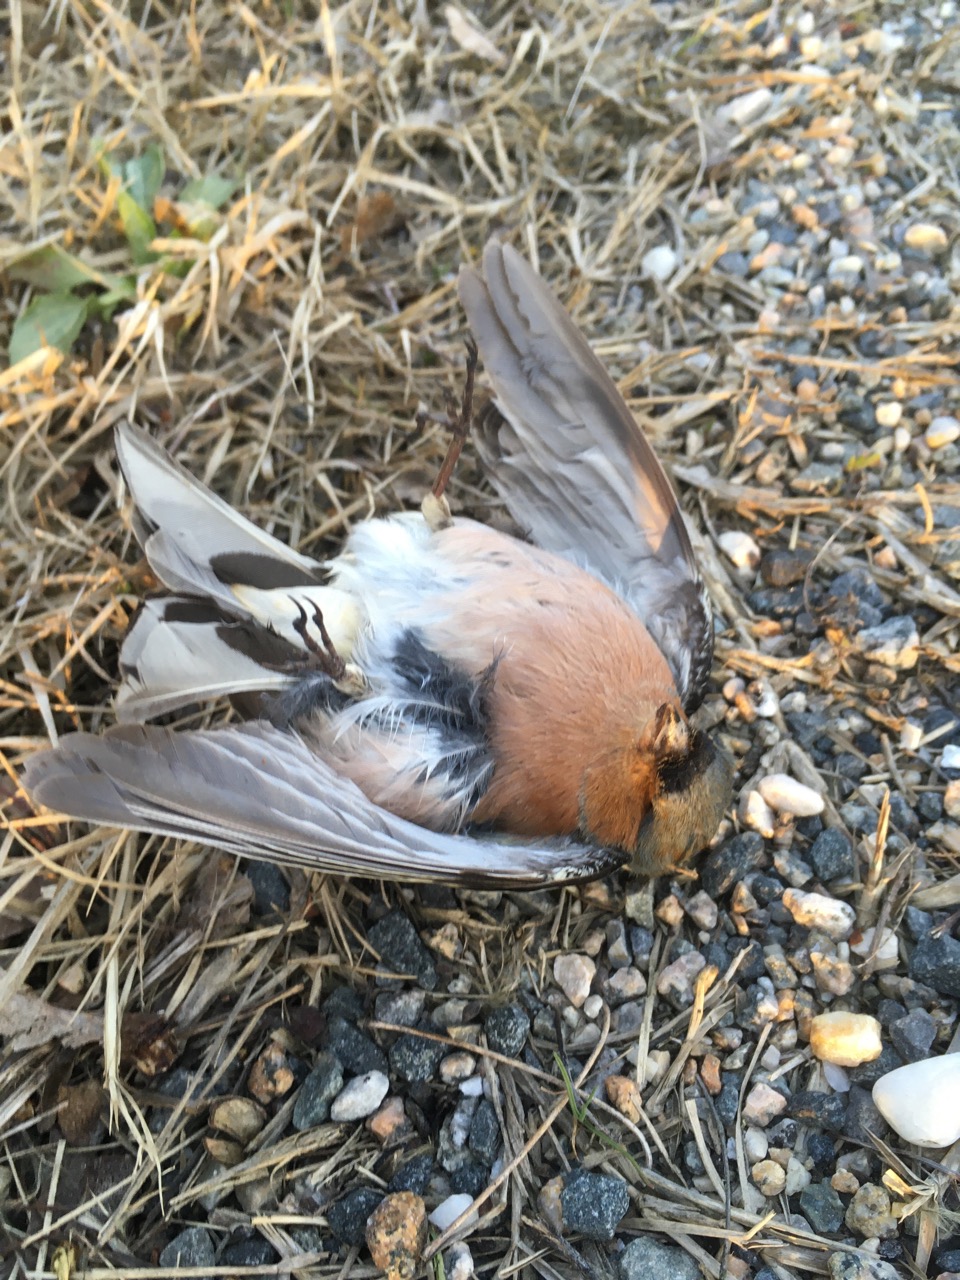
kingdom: Animalia
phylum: Chordata
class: Aves
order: Passeriformes
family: Fringillidae
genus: Fringilla
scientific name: Fringilla coelebs
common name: Common chaffinch
